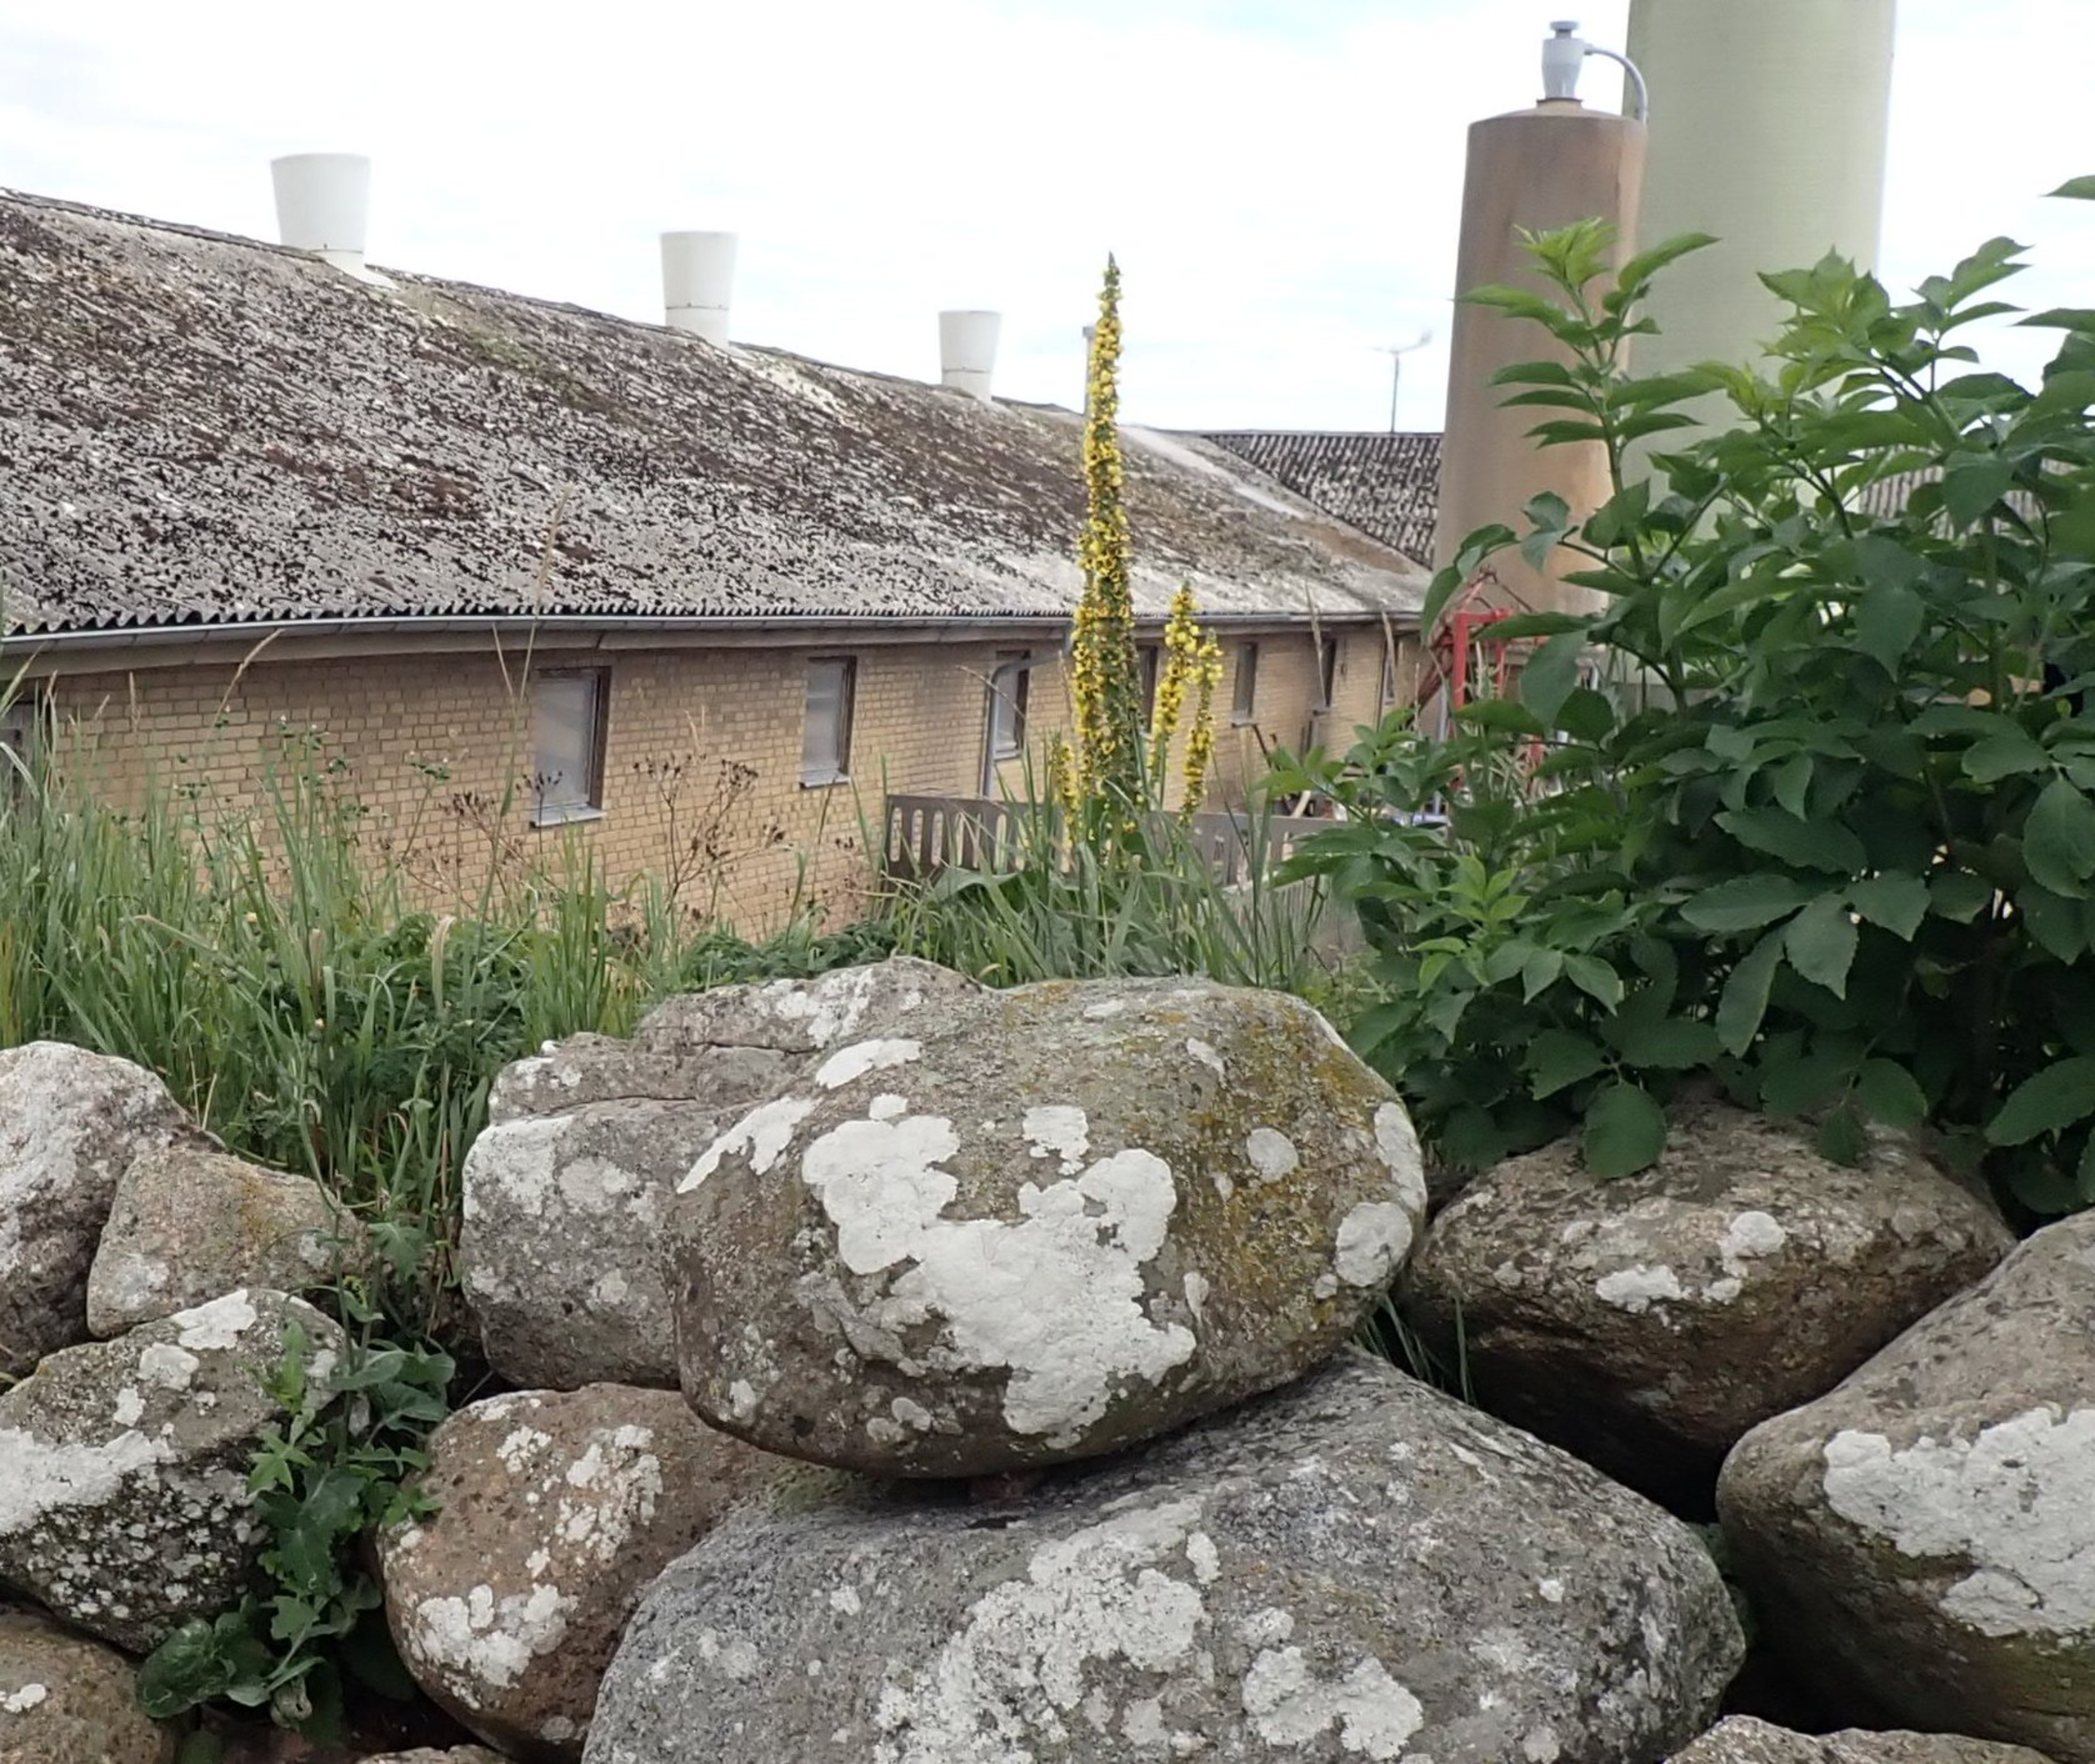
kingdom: Plantae
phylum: Tracheophyta
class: Magnoliopsida
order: Lamiales
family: Scrophulariaceae
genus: Verbascum
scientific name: Verbascum nigrum
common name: Mørk kongelys
